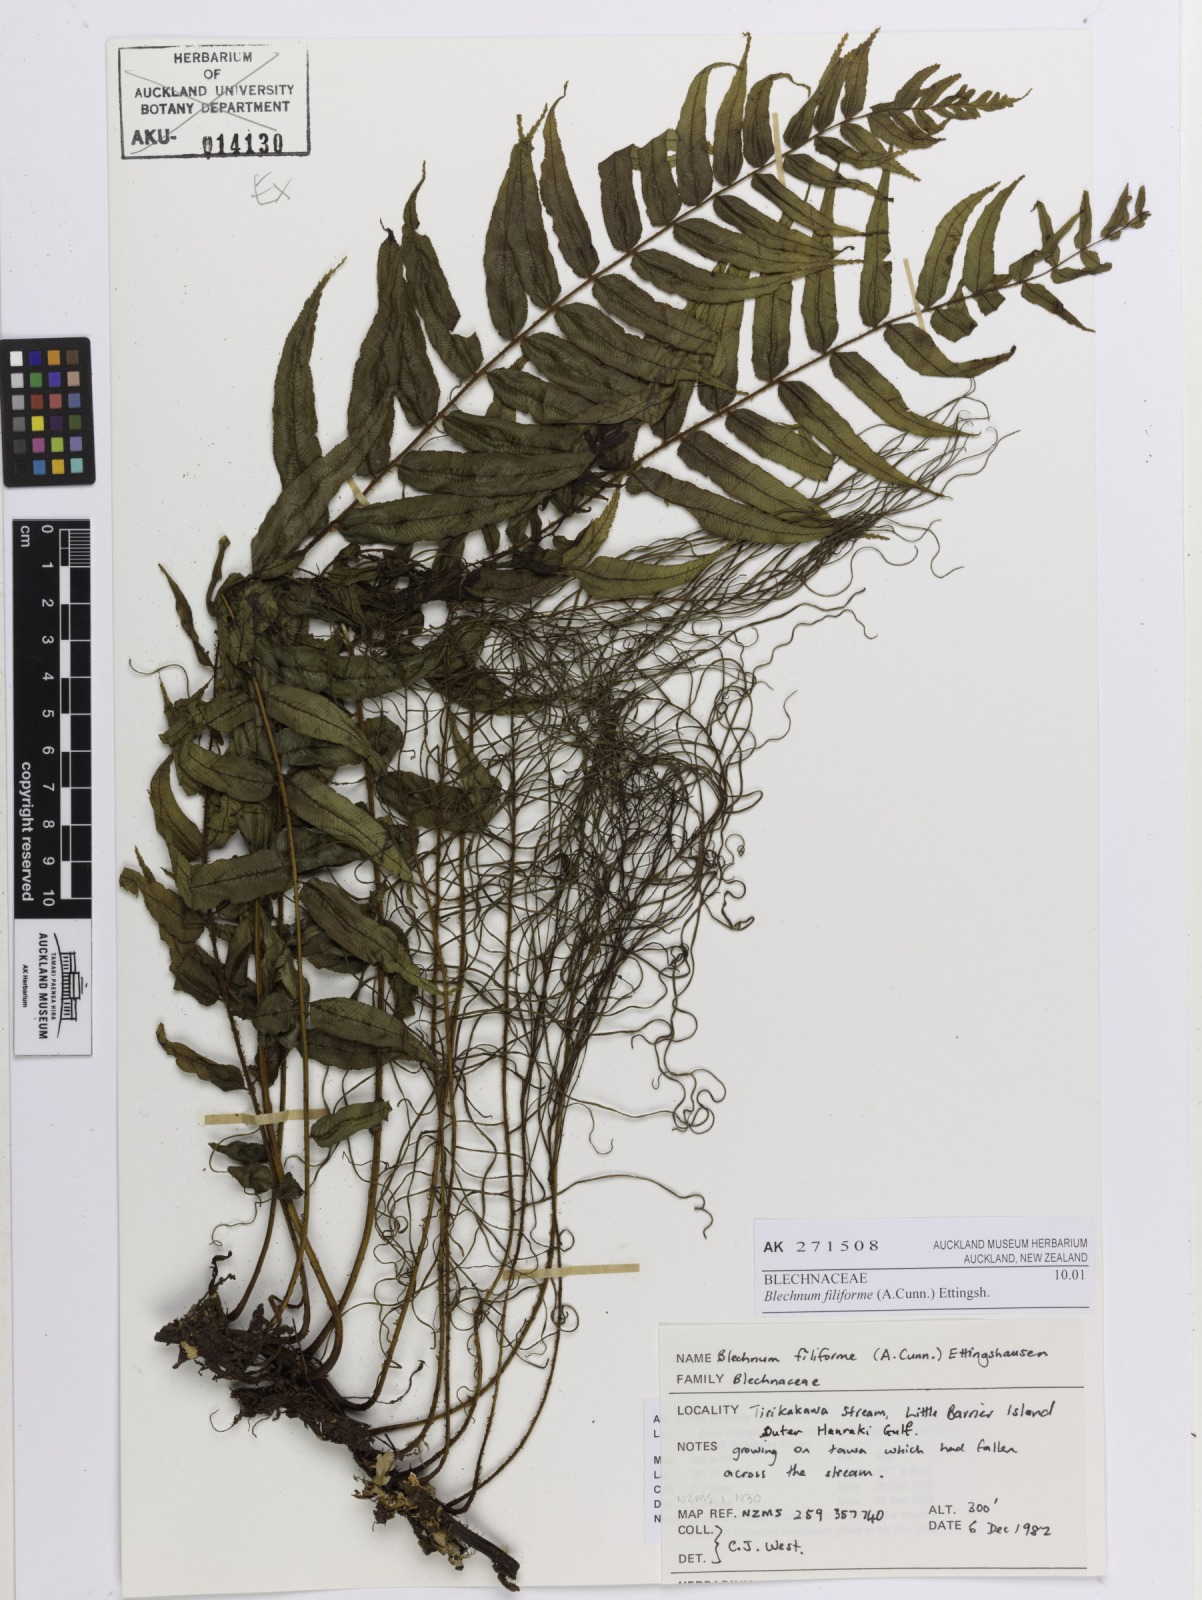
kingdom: Plantae
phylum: Tracheophyta
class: Polypodiopsida
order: Polypodiales
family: Blechnaceae
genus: Icarus
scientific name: Icarus filiformis
